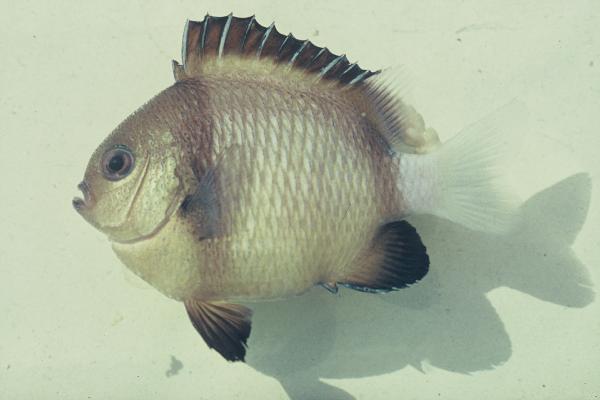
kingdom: Animalia
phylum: Chordata
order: Perciformes
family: Pomacentridae
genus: Dascyllus
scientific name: Dascyllus carneus
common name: Indian dascyllus
